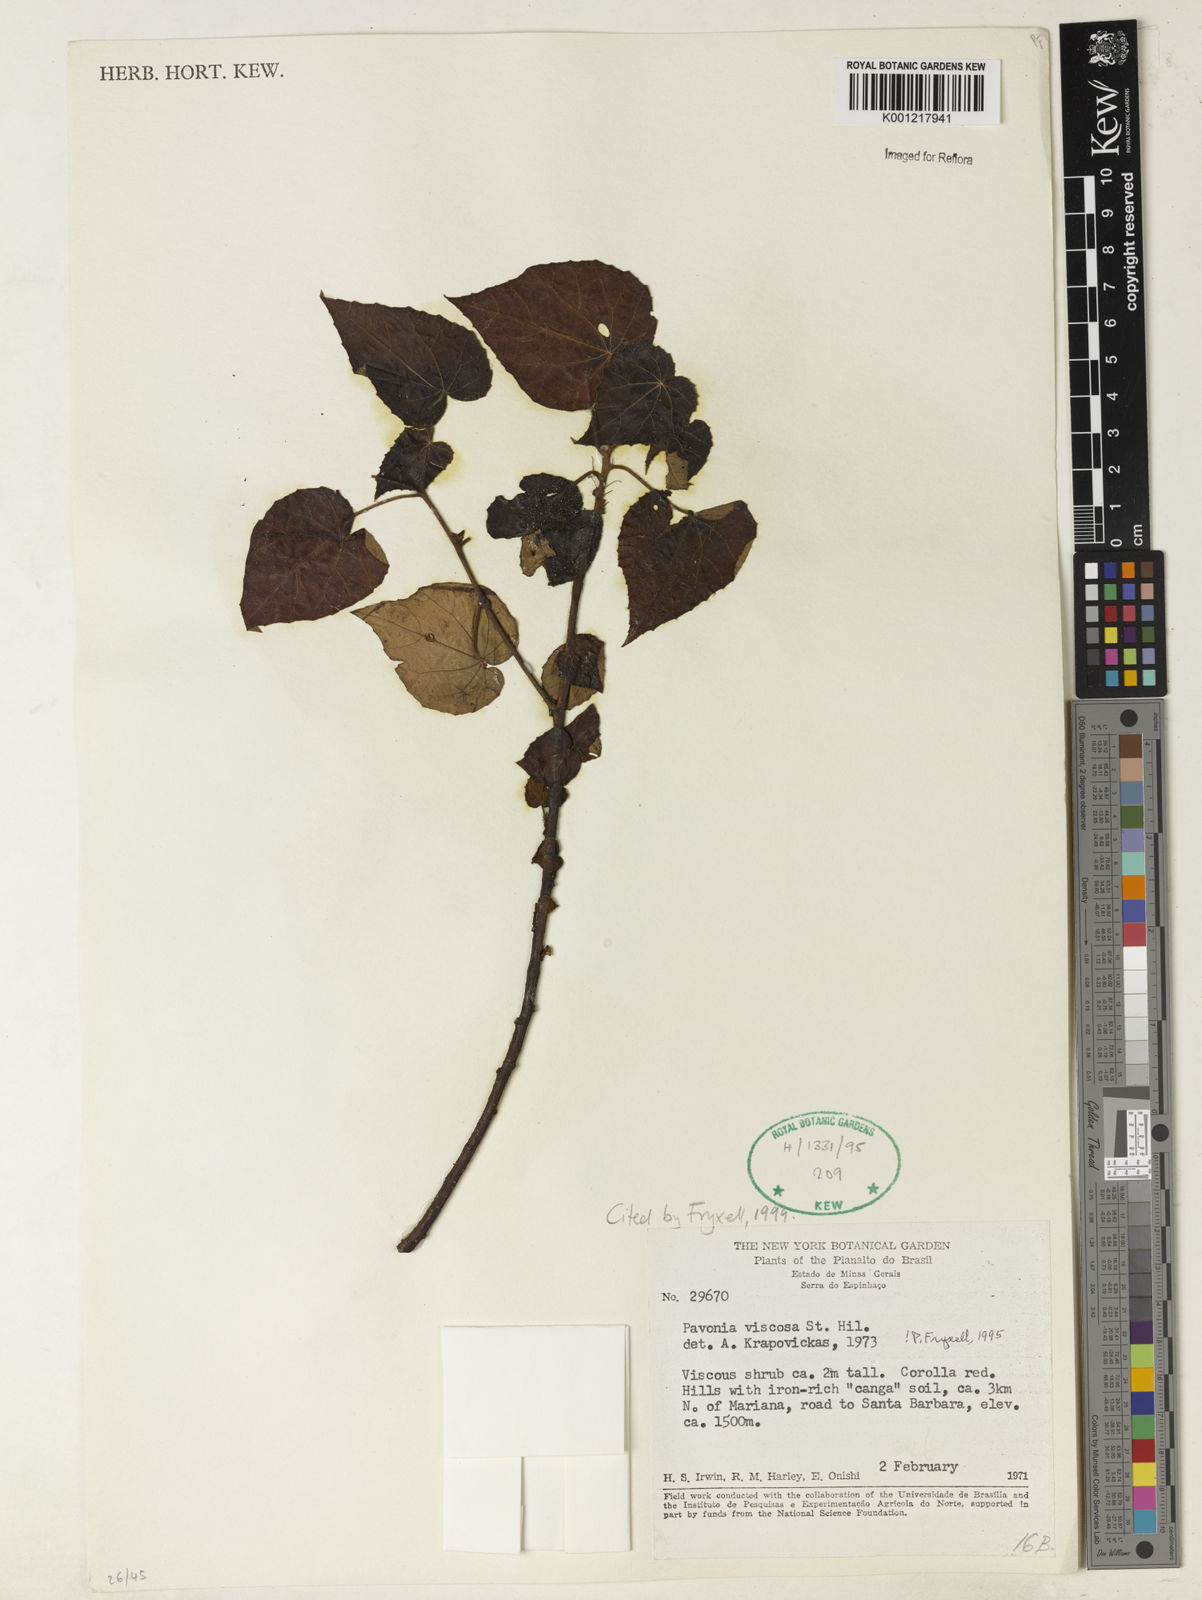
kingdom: Plantae
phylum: Tracheophyta
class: Magnoliopsida
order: Malvales
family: Malvaceae
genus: Pavonia
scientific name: Pavonia viscosa
